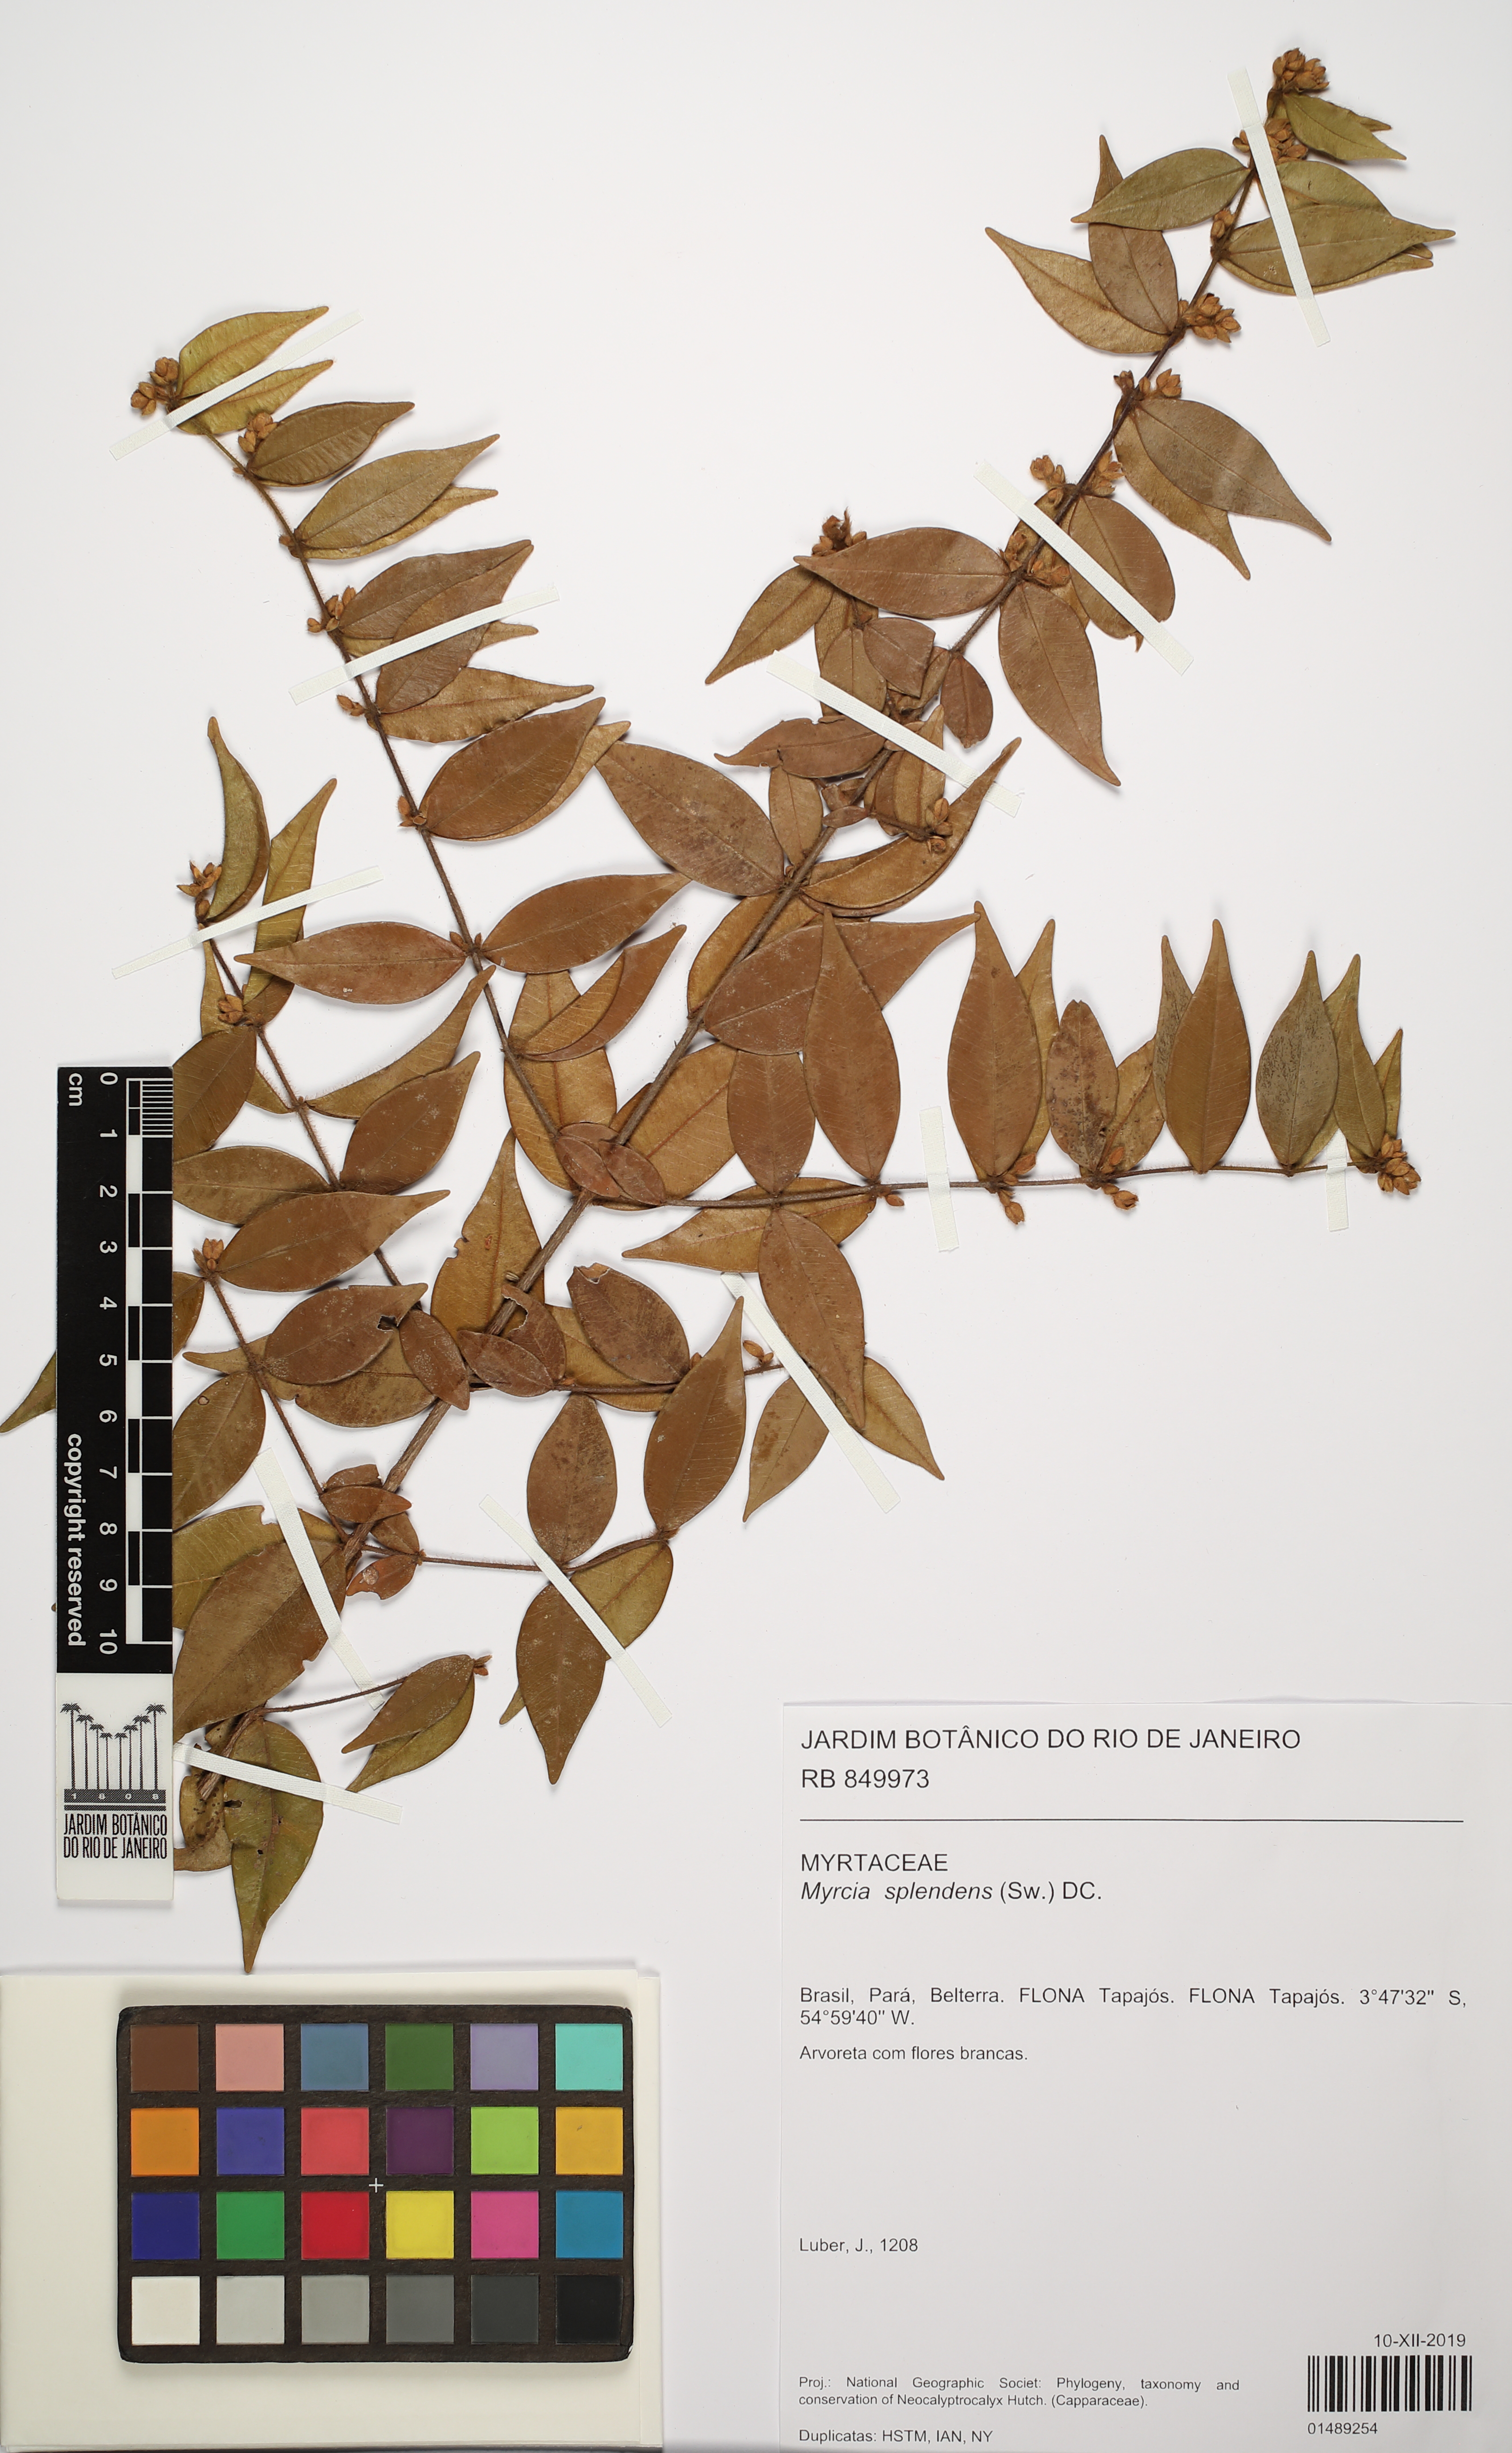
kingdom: Plantae
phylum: Tracheophyta
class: Magnoliopsida
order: Myrtales
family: Myrtaceae
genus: Myrcia
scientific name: Myrcia splendens
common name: Surinam cherry
